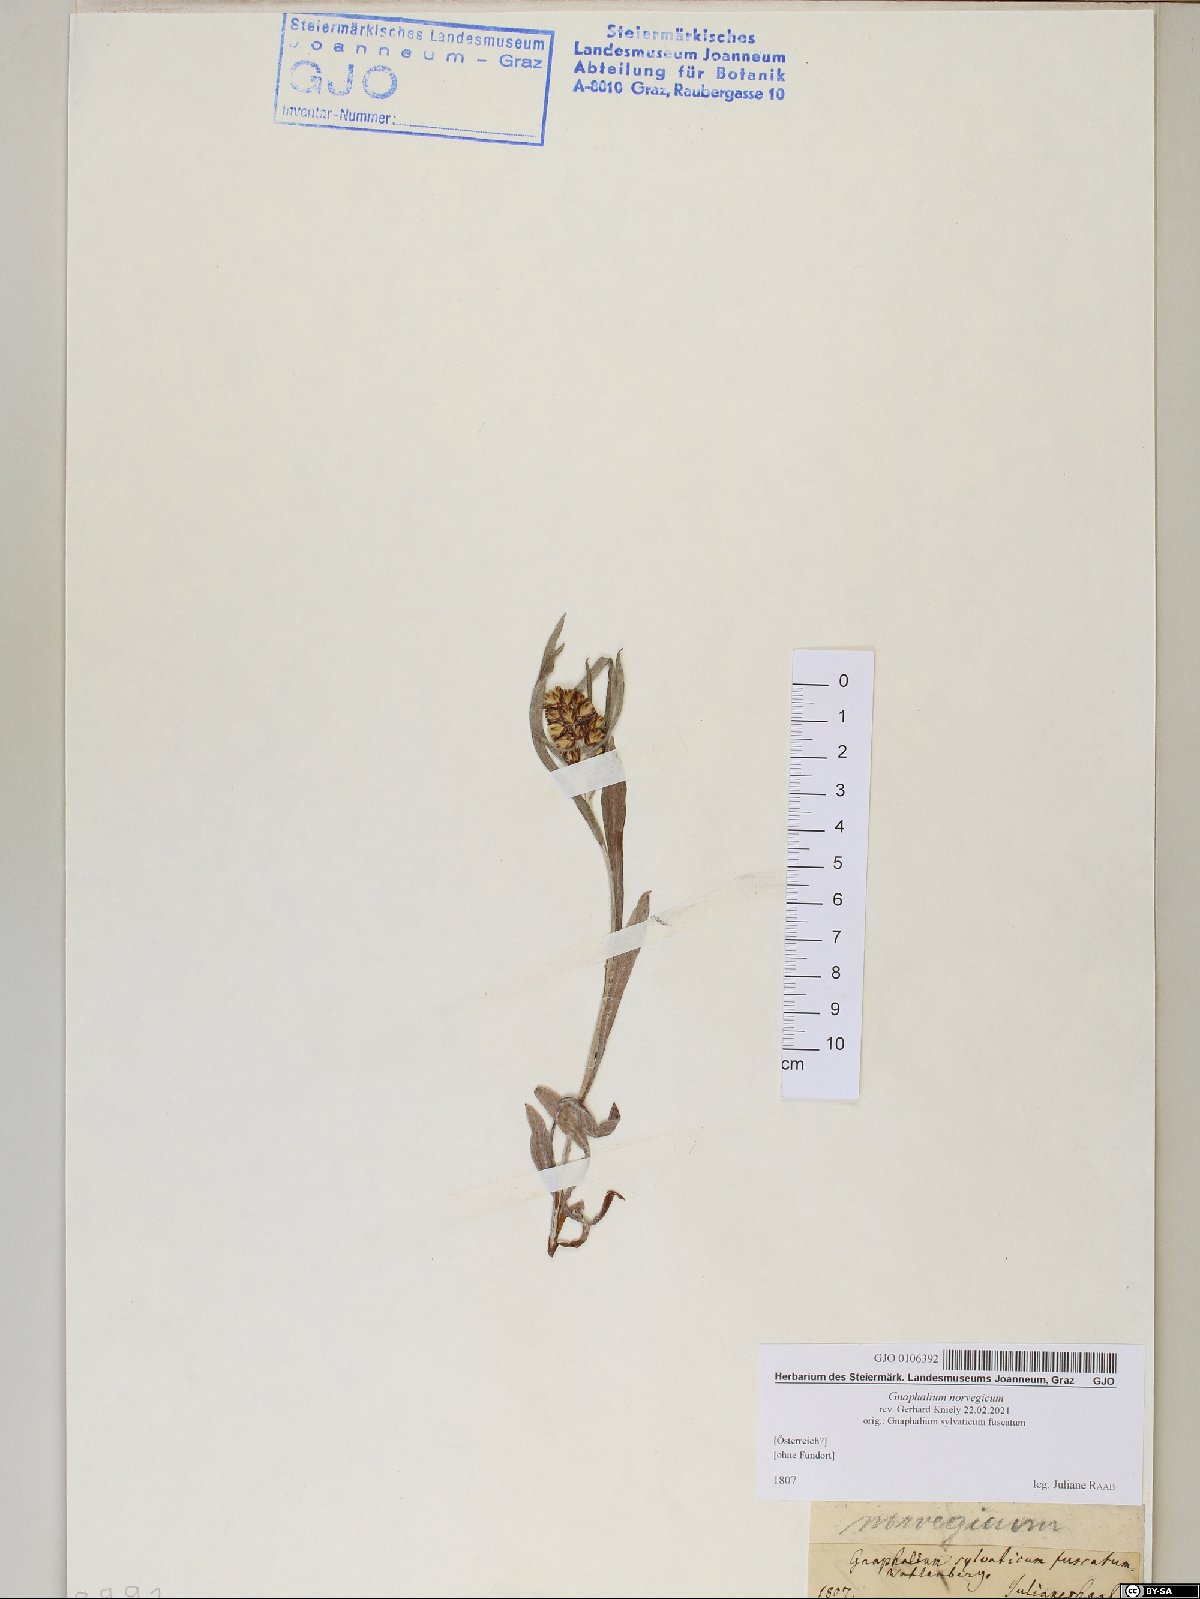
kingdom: Plantae
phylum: Tracheophyta
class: Magnoliopsida
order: Asterales
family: Asteraceae
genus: Omalotheca
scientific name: Omalotheca norvegica
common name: Norwegian arctic-cudweed
